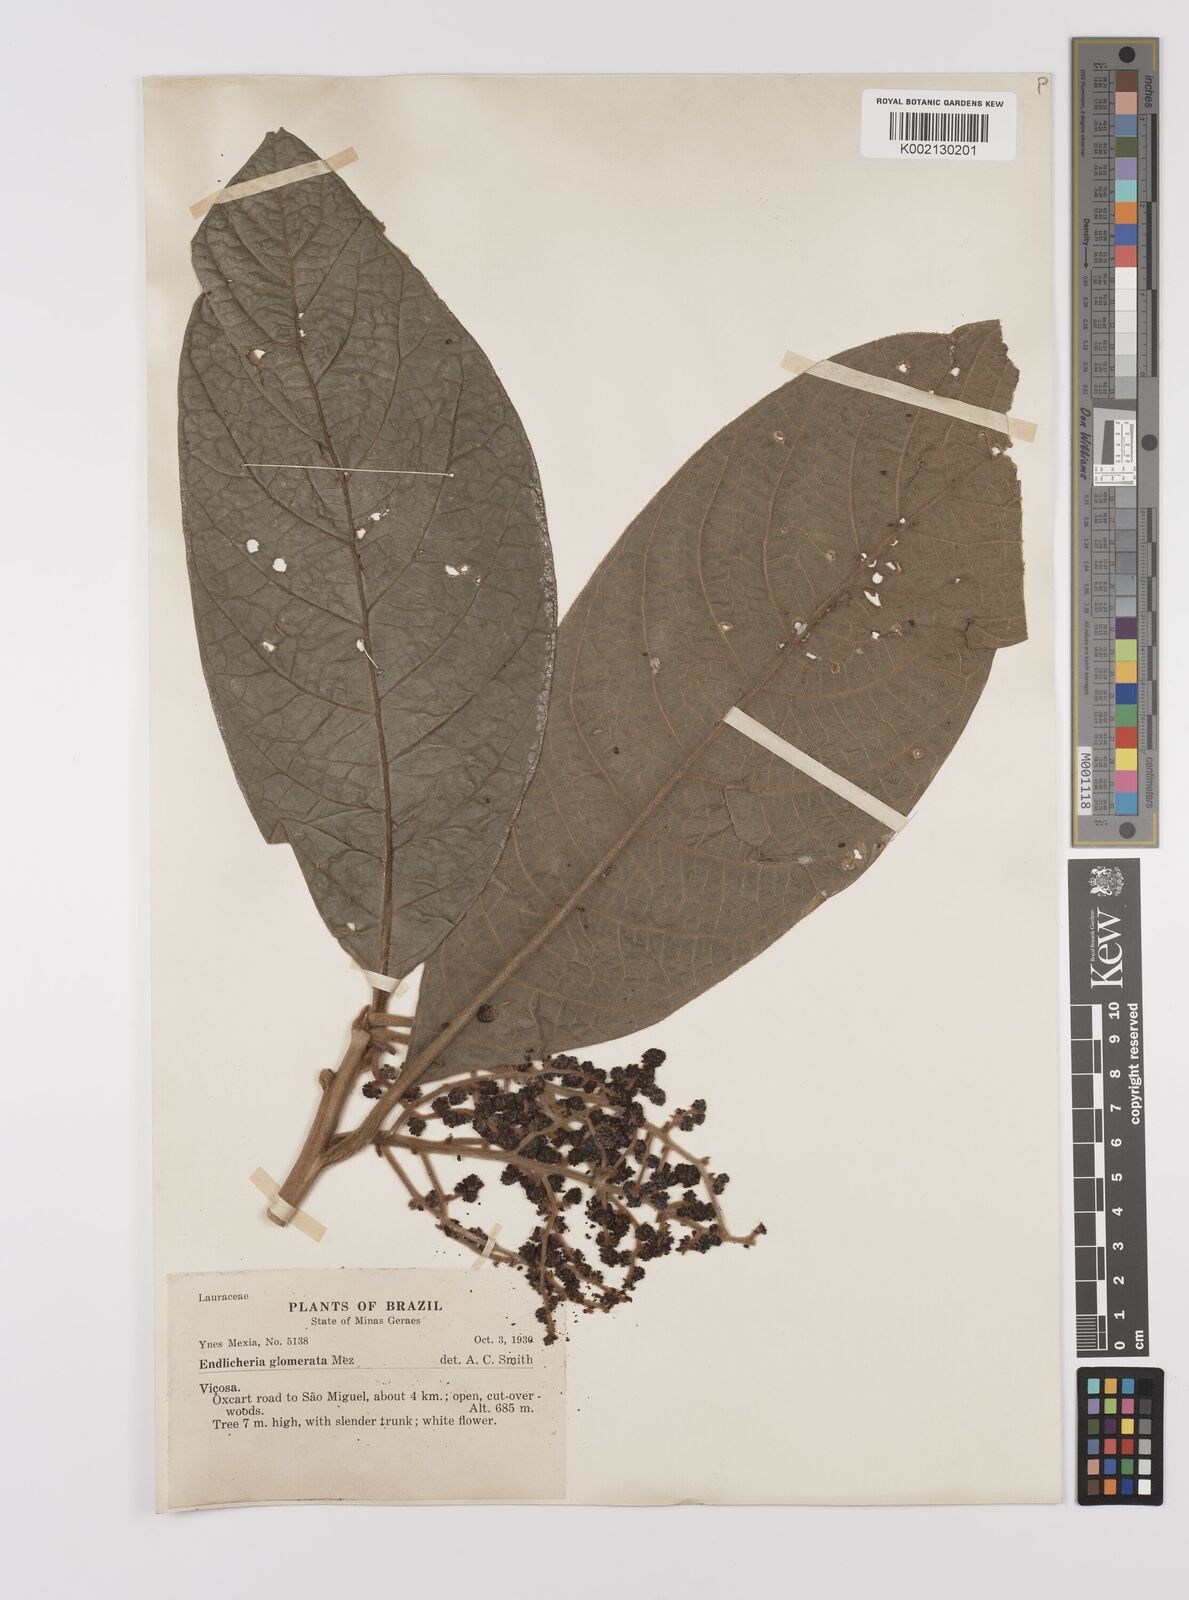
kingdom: Plantae
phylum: Tracheophyta
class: Magnoliopsida
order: Laurales
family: Lauraceae
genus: Endlicheria
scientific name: Endlicheria glomerata
